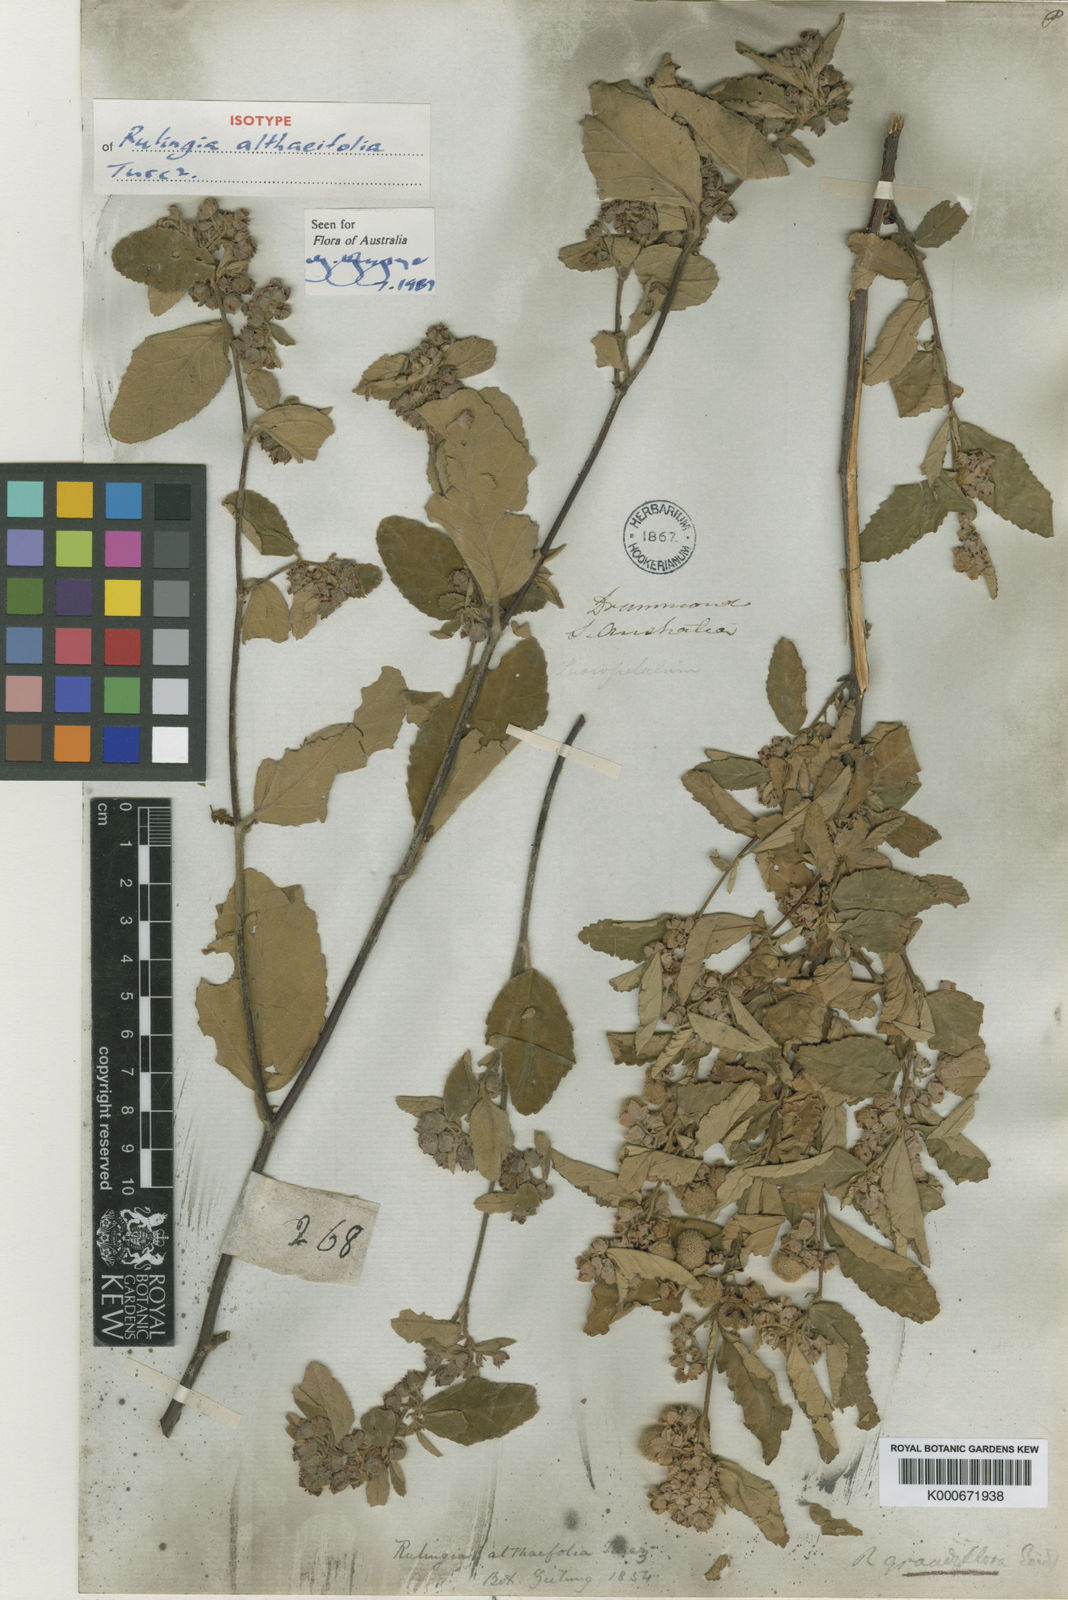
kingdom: Plantae
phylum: Tracheophyta
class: Magnoliopsida
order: Malvales
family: Malvaceae
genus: Commersonia
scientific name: Commersonia grandiflora
